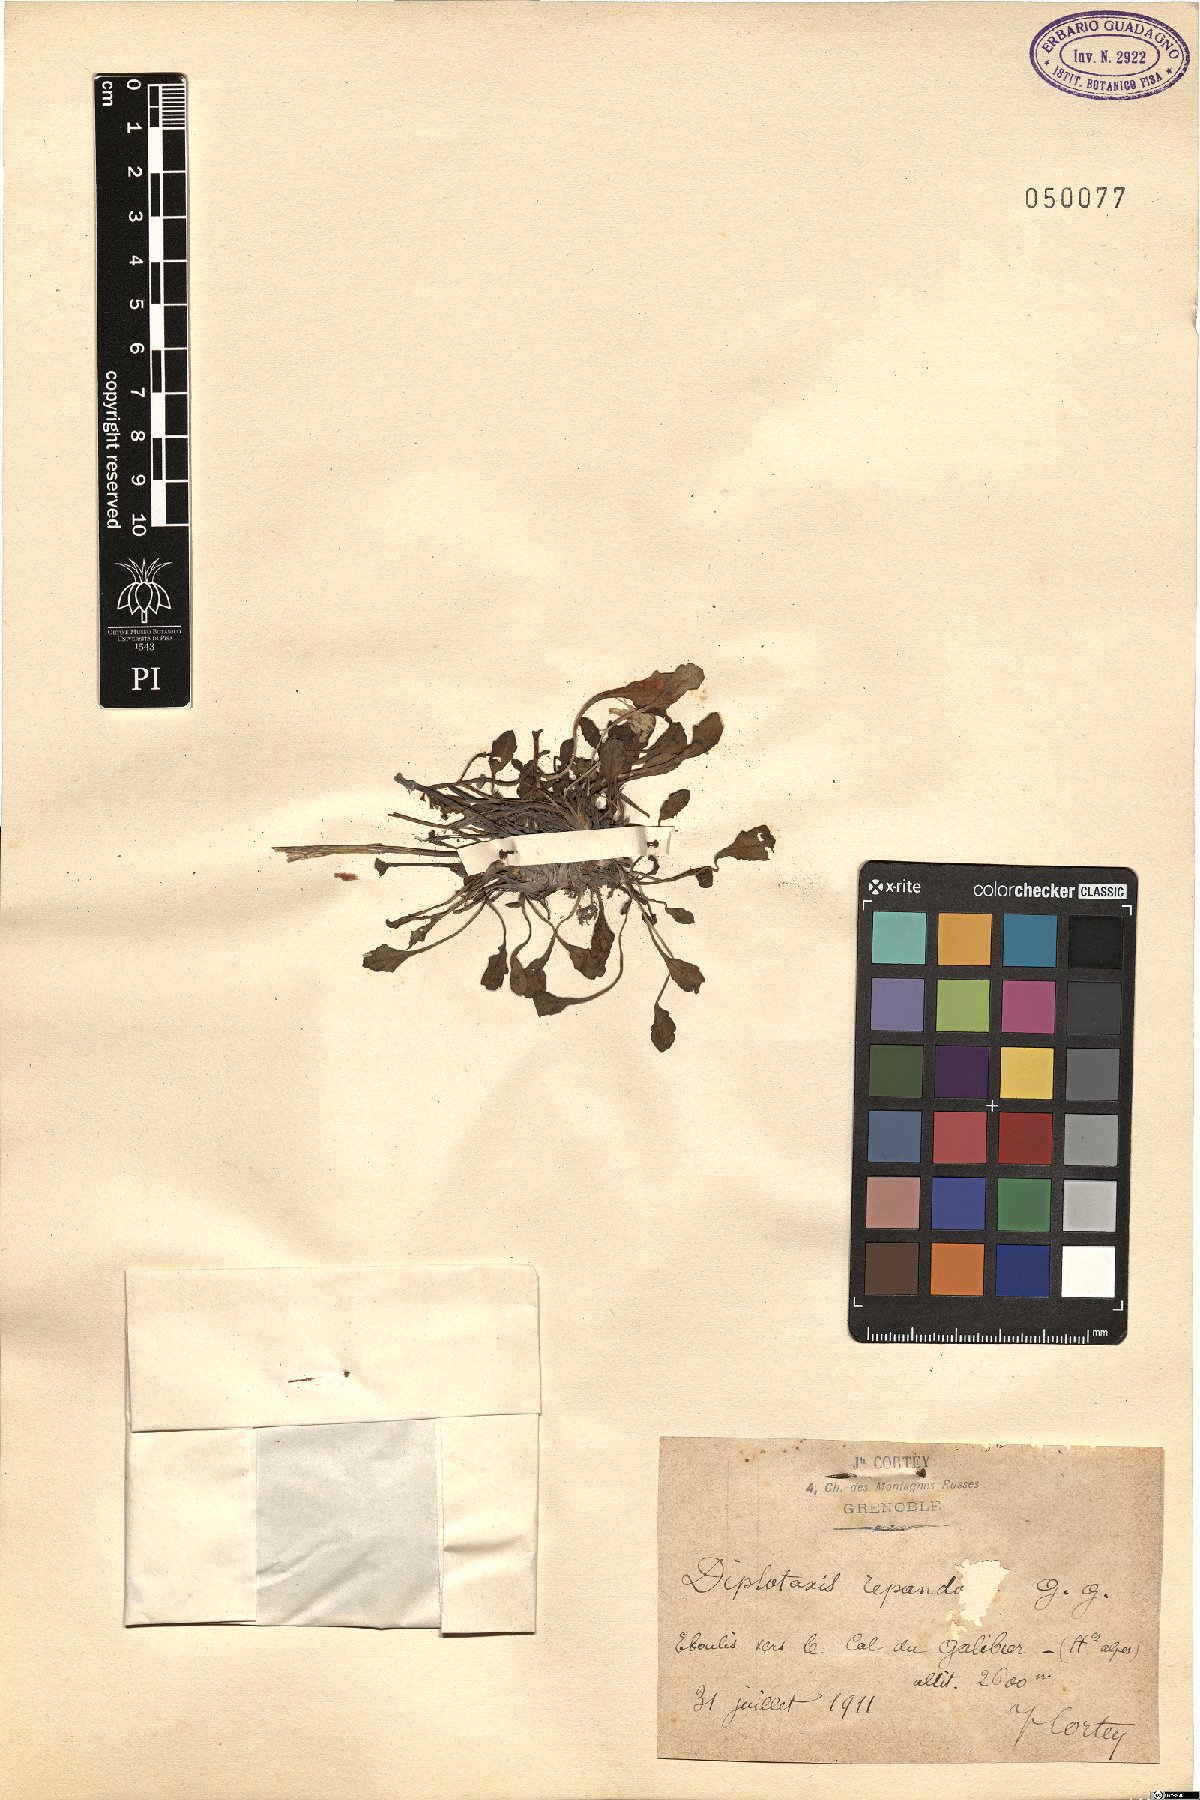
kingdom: Plantae
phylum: Tracheophyta
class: Magnoliopsida
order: Brassicales
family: Brassicaceae
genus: Brassica
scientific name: Brassica repanda
